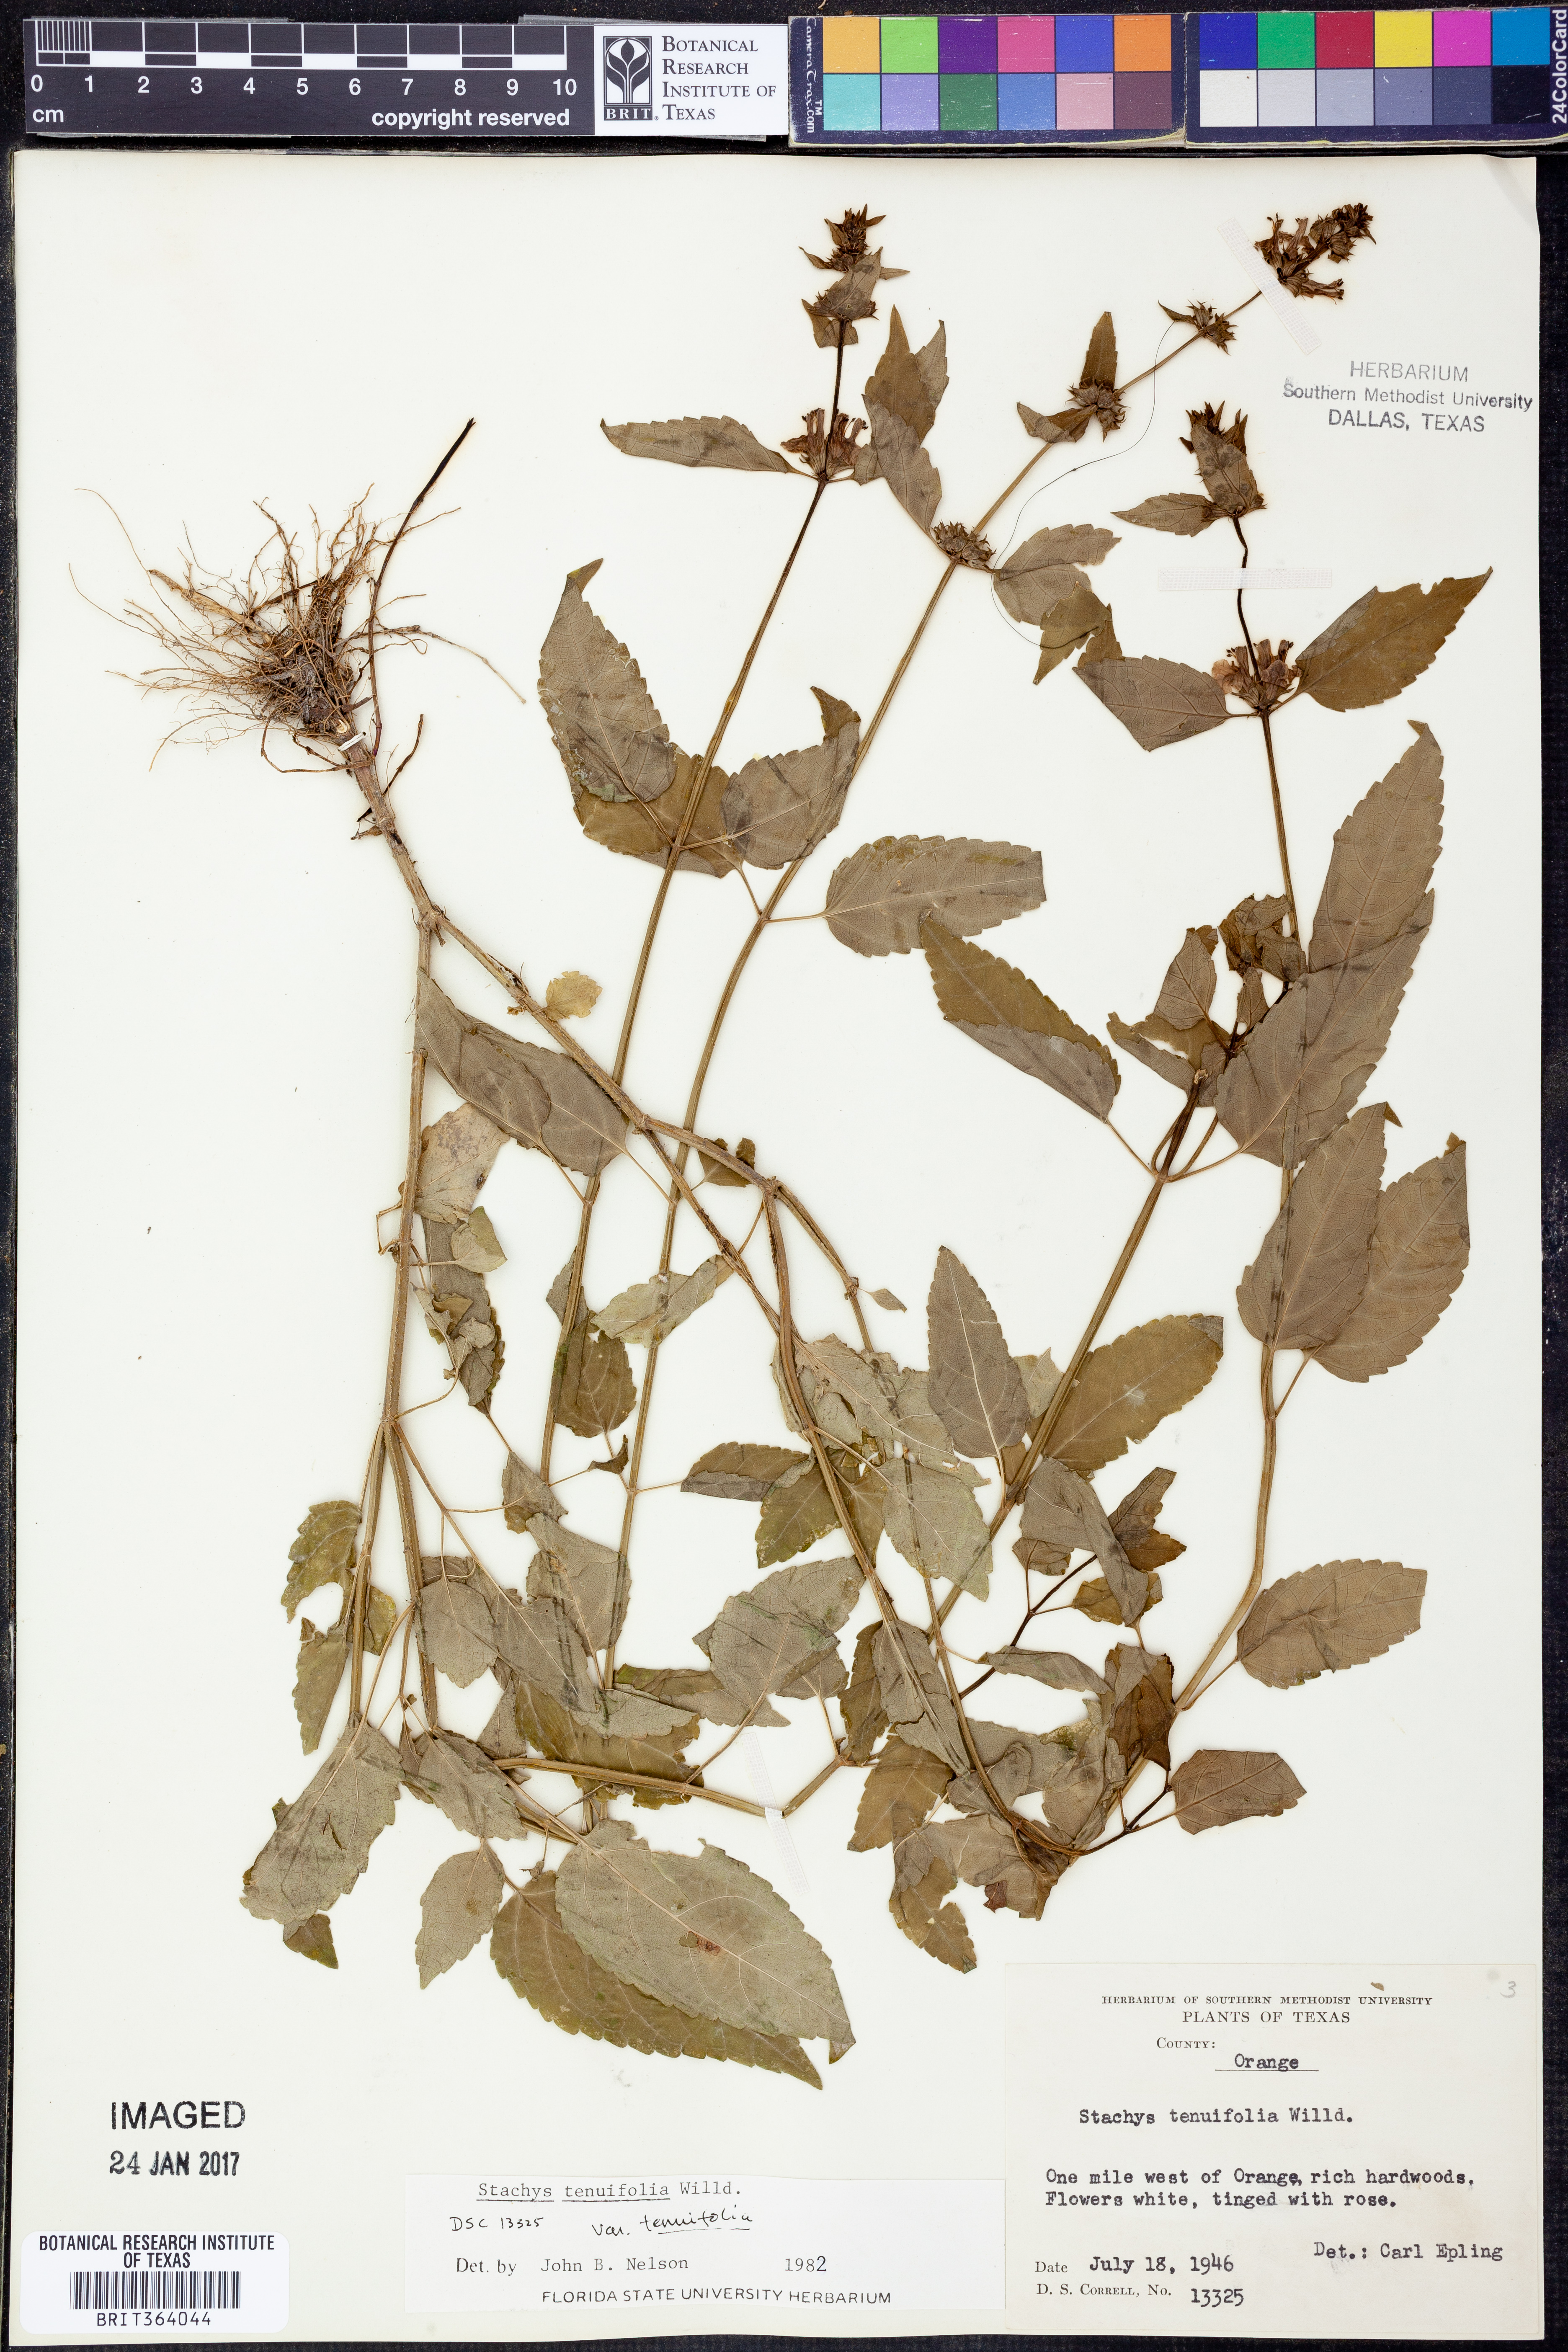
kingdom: Plantae
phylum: Tracheophyta
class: Magnoliopsida
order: Lamiales
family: Lamiaceae
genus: Stachys
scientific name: Stachys tenuifolia
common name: Smooth hedge-nettle
